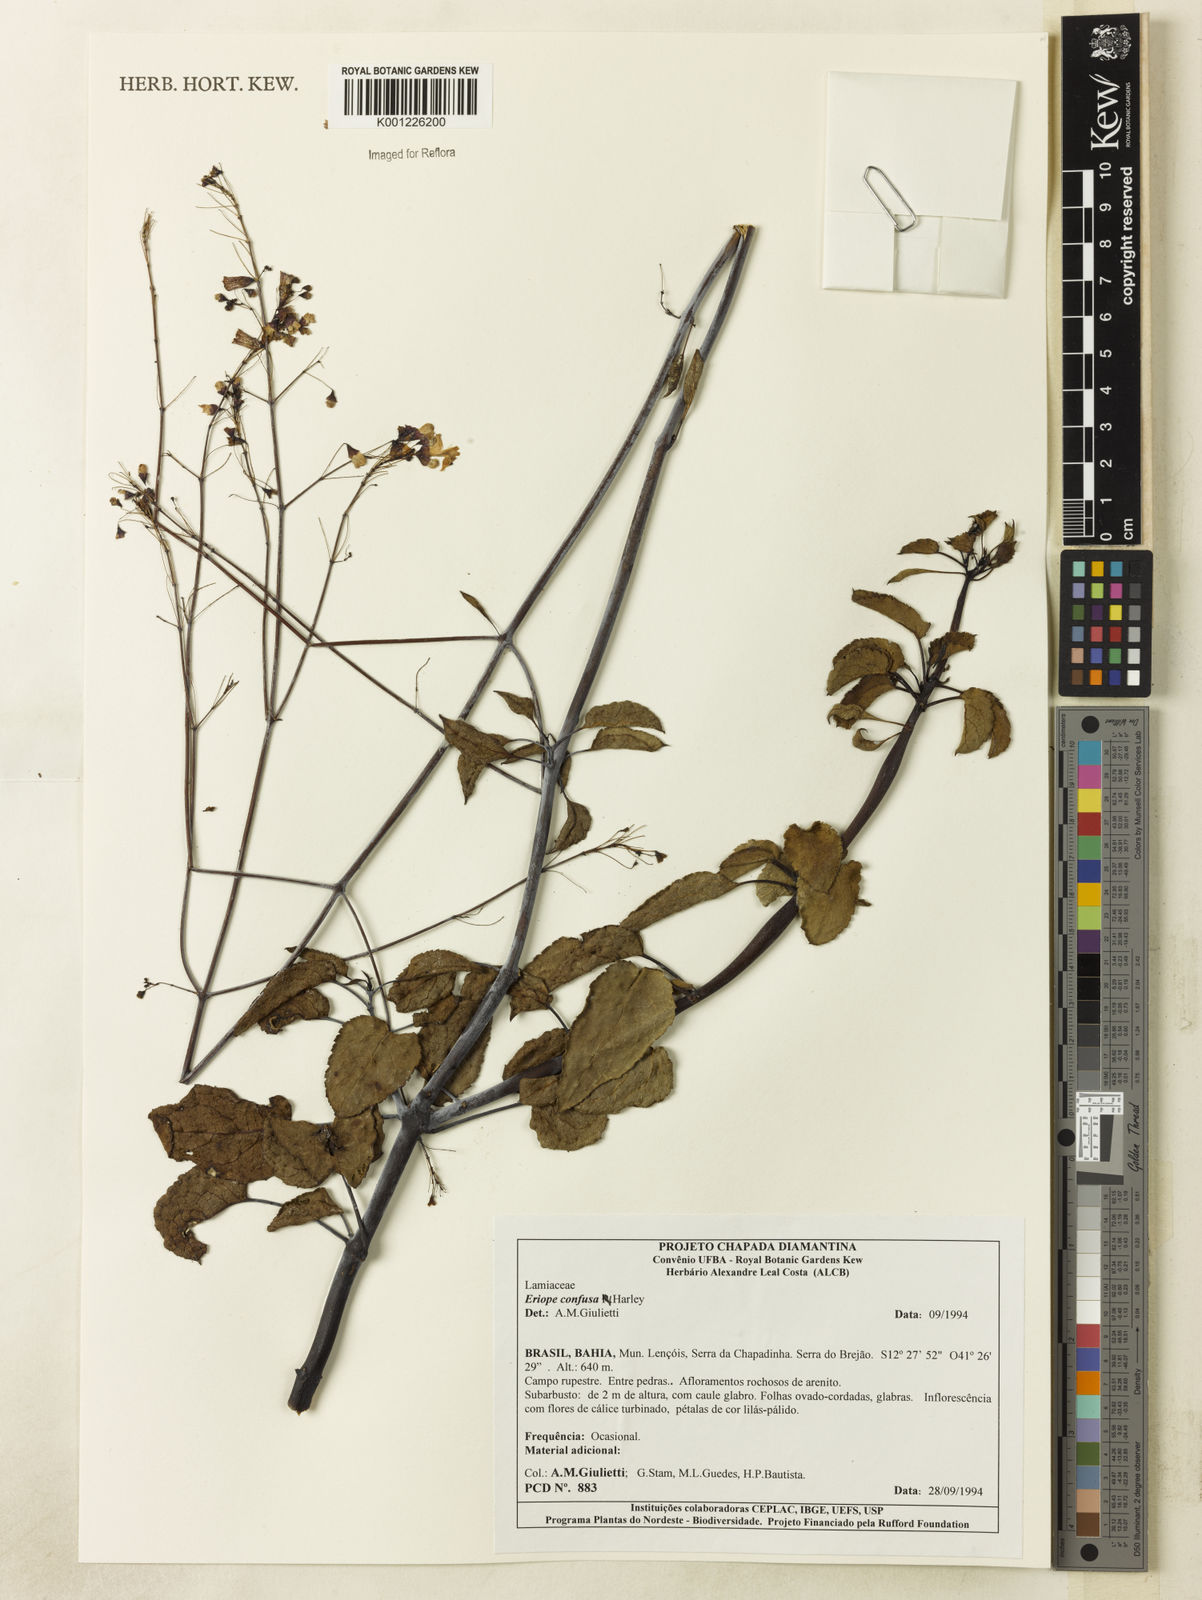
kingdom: Plantae
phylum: Tracheophyta
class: Magnoliopsida
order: Lamiales
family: Lamiaceae
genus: Eriope
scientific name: Eriope confusa
